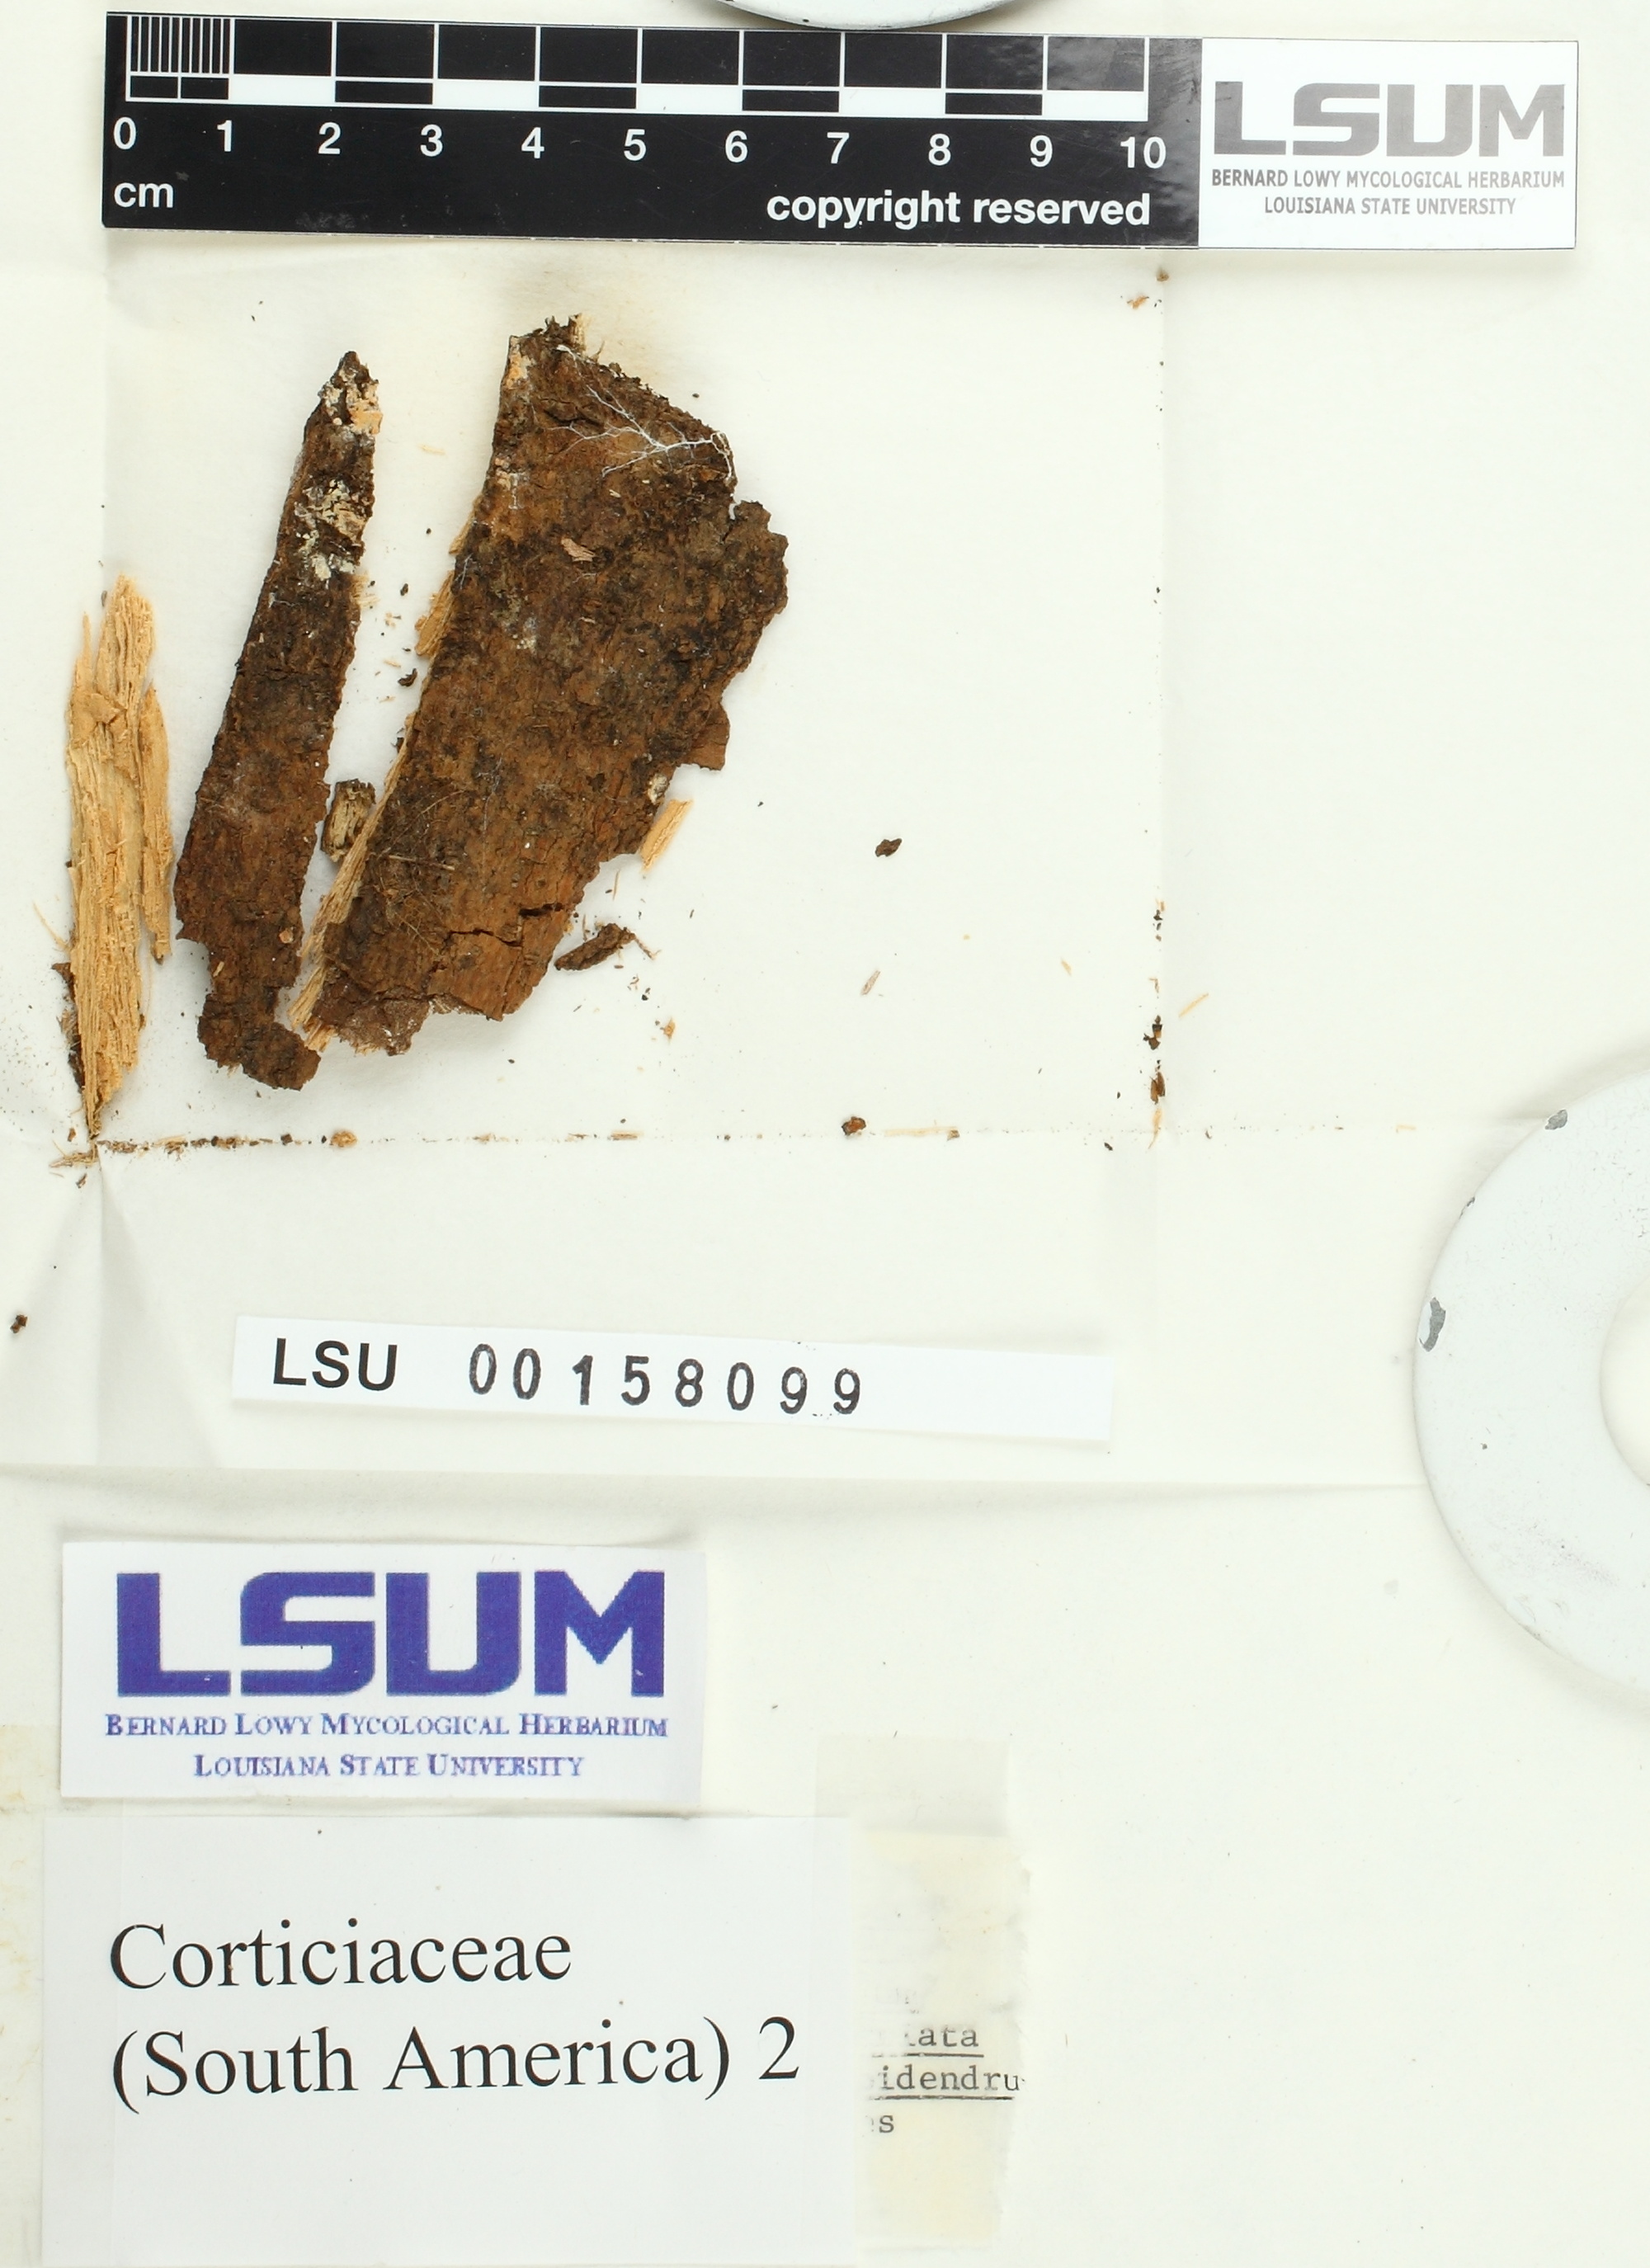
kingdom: Fungi
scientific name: Fungi
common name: Fungi
